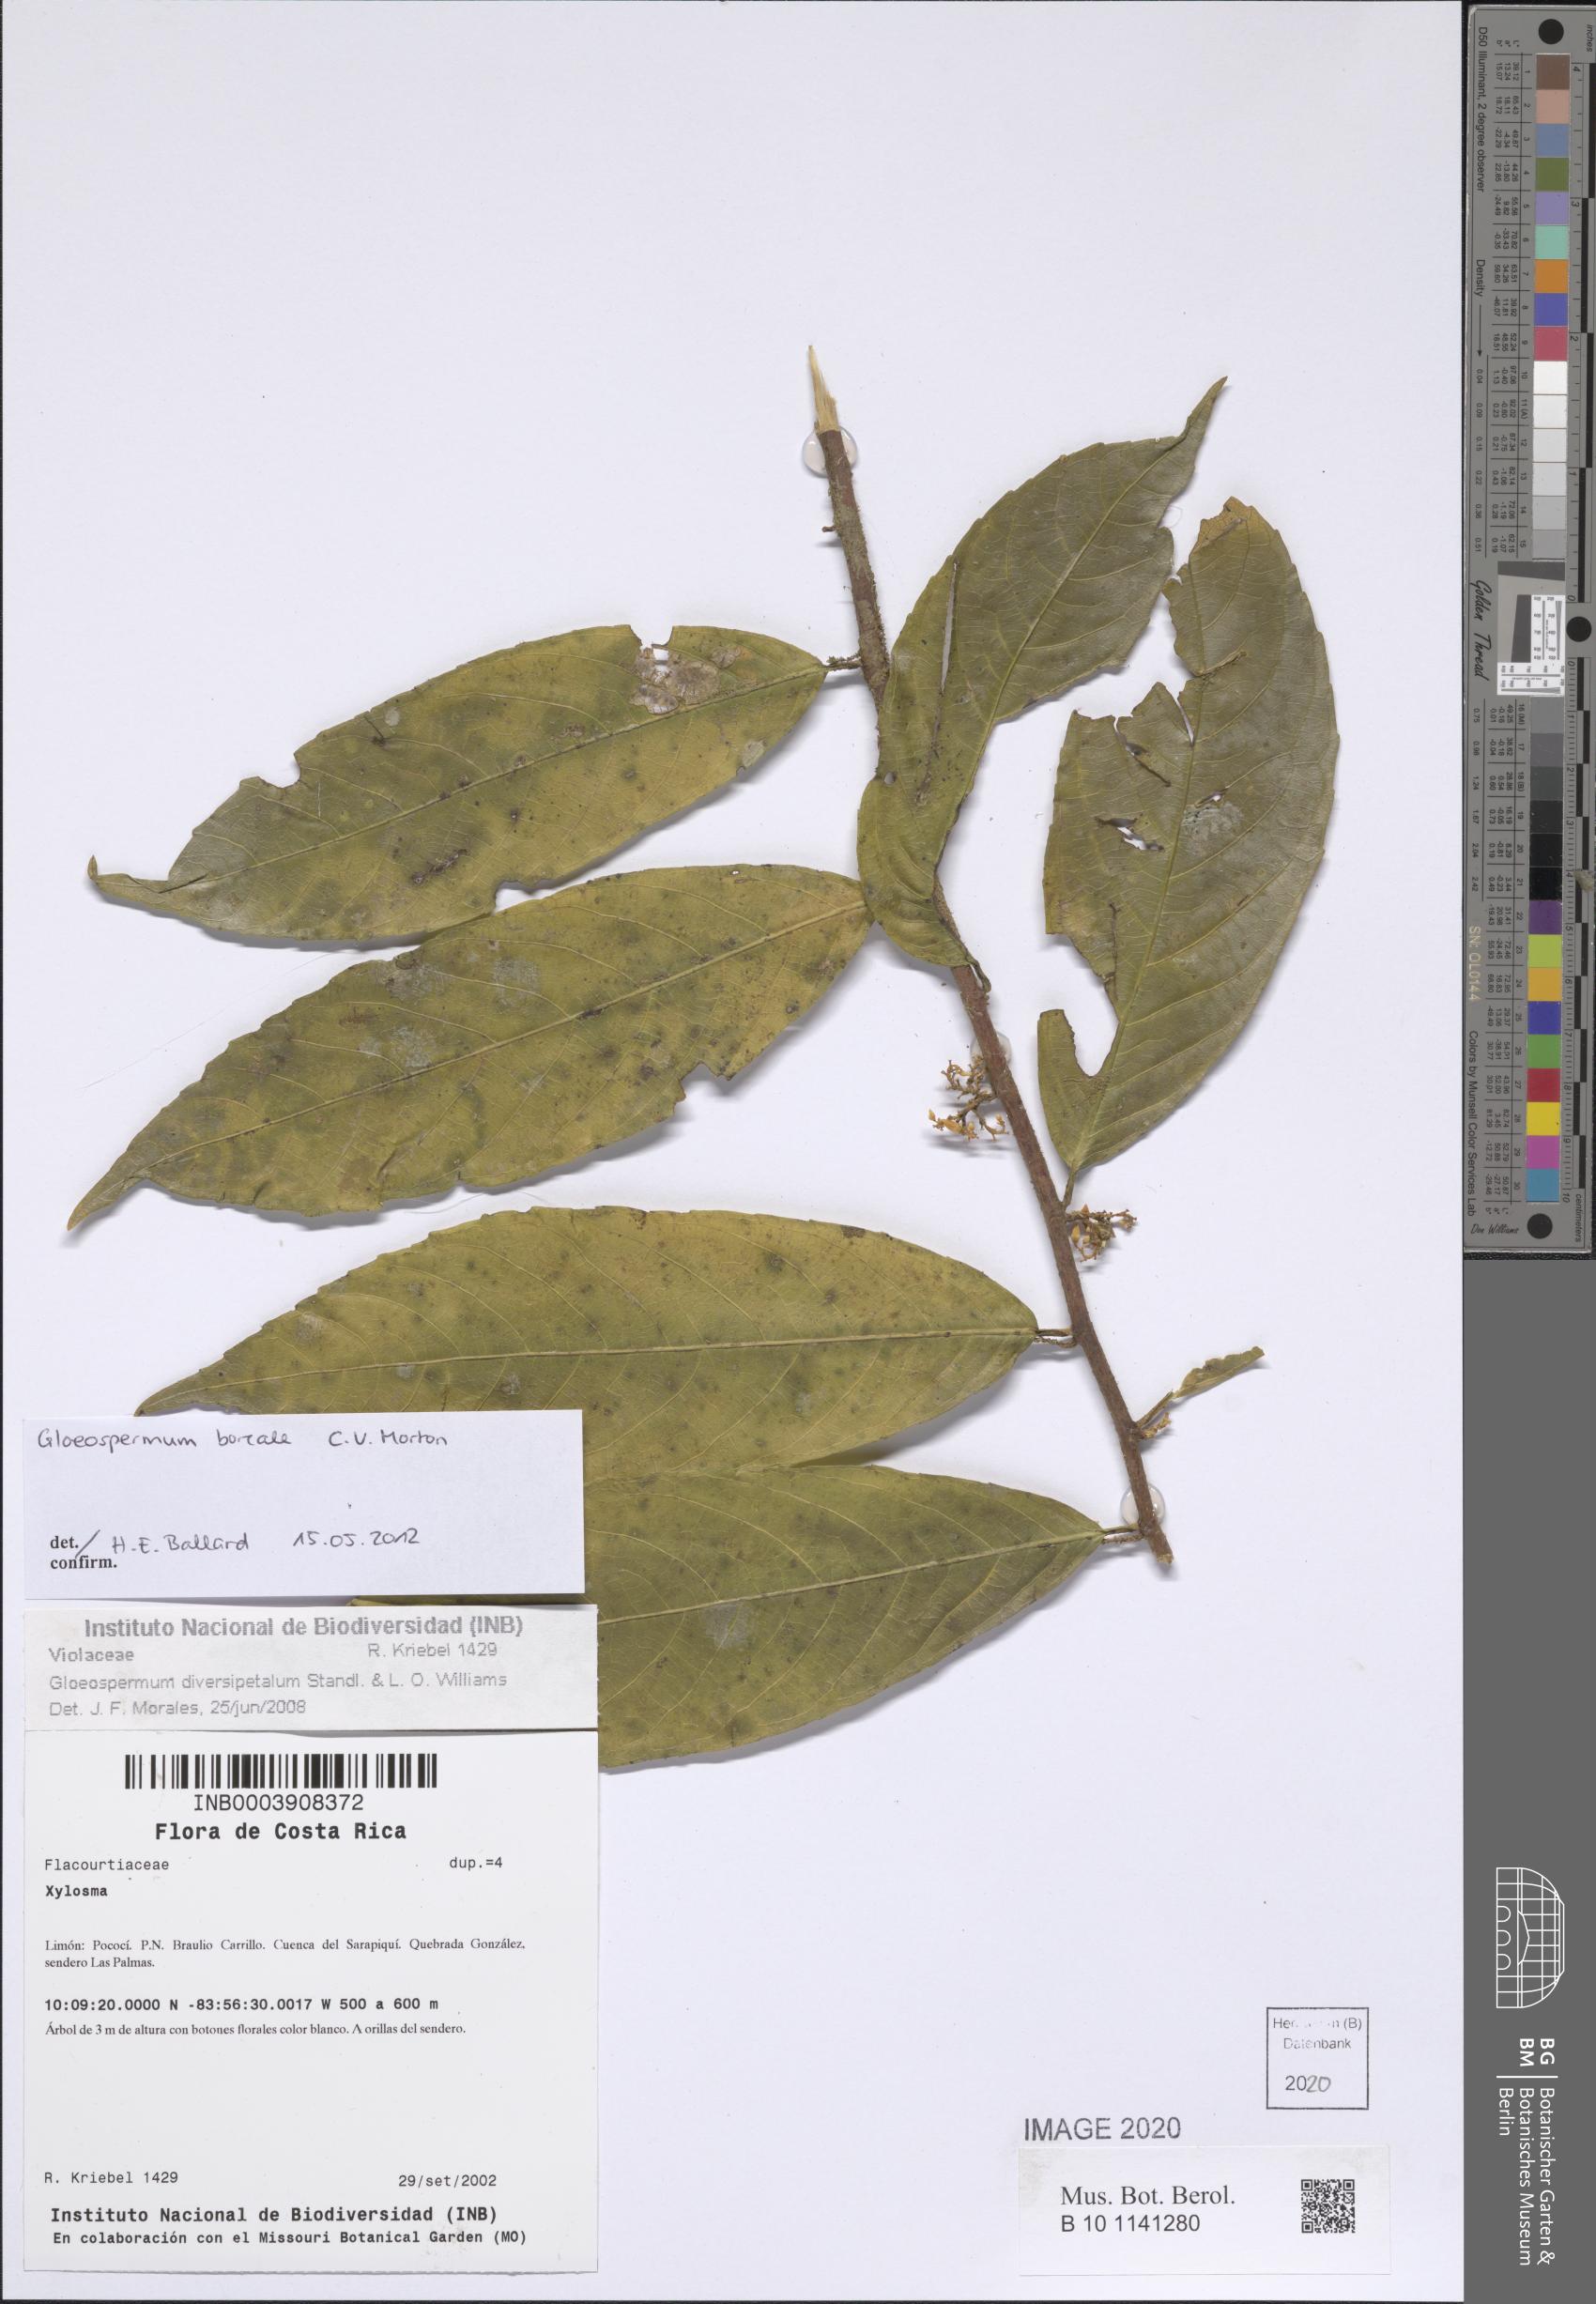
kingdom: Plantae
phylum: Tracheophyta
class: Magnoliopsida
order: Malpighiales
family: Violaceae
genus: Gloeospermum
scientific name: Gloeospermum boreale
